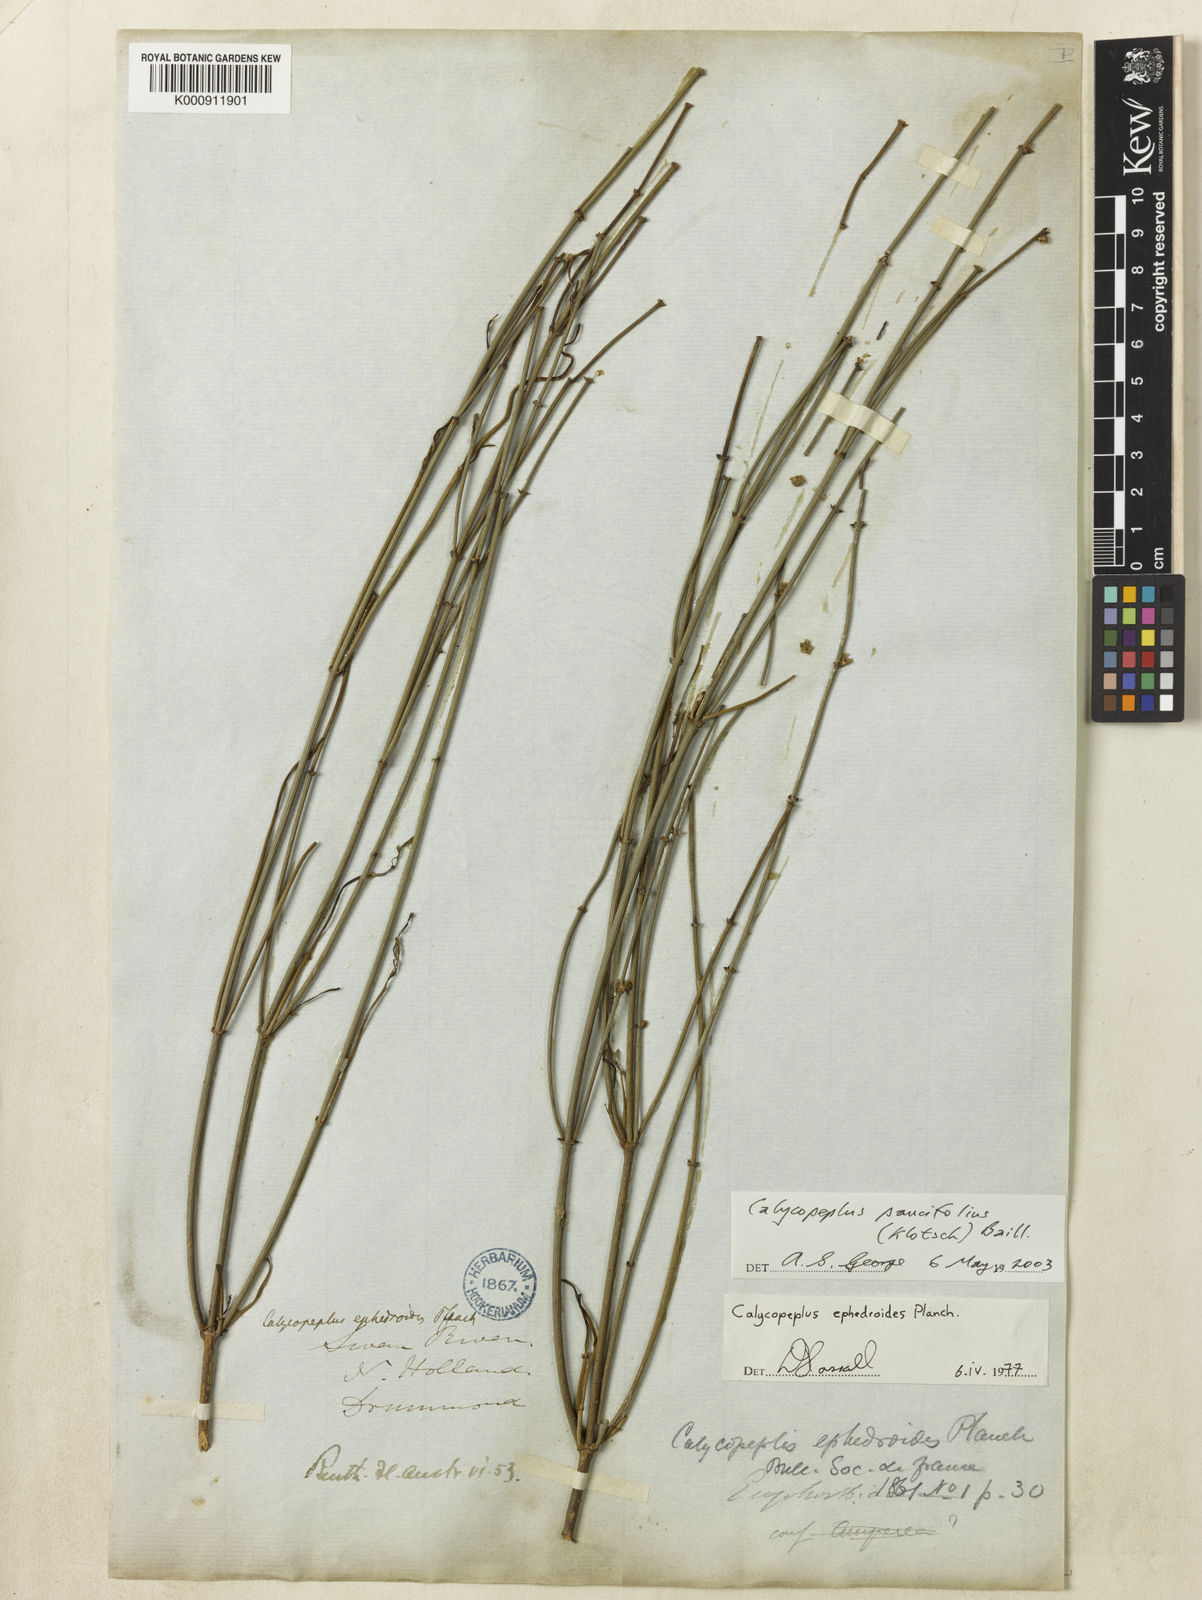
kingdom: Plantae
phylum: Tracheophyta
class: Magnoliopsida
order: Malpighiales
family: Euphorbiaceae
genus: Calycopeplus
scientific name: Calycopeplus paucifolius
